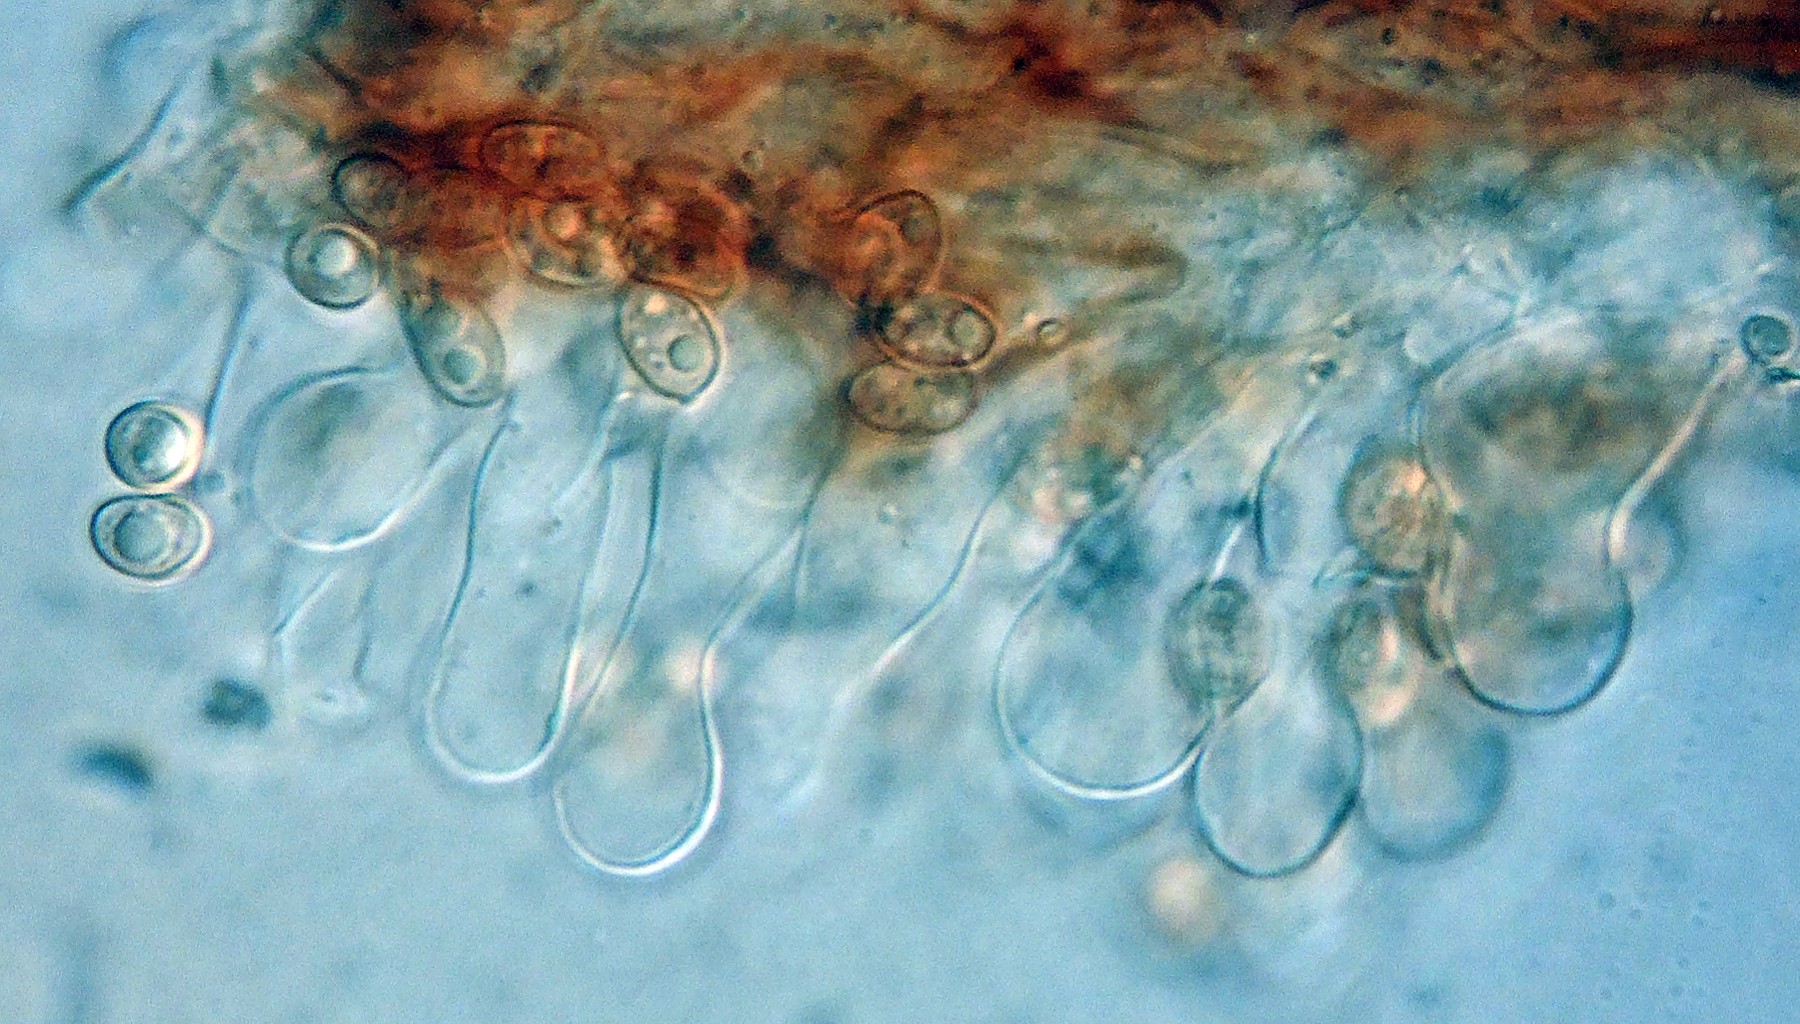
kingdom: Fungi
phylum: Basidiomycota
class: Agaricomycetes
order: Agaricales
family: Tubariaceae
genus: Tubaria
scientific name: Tubaria furfuracea
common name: kliddet fnughat
